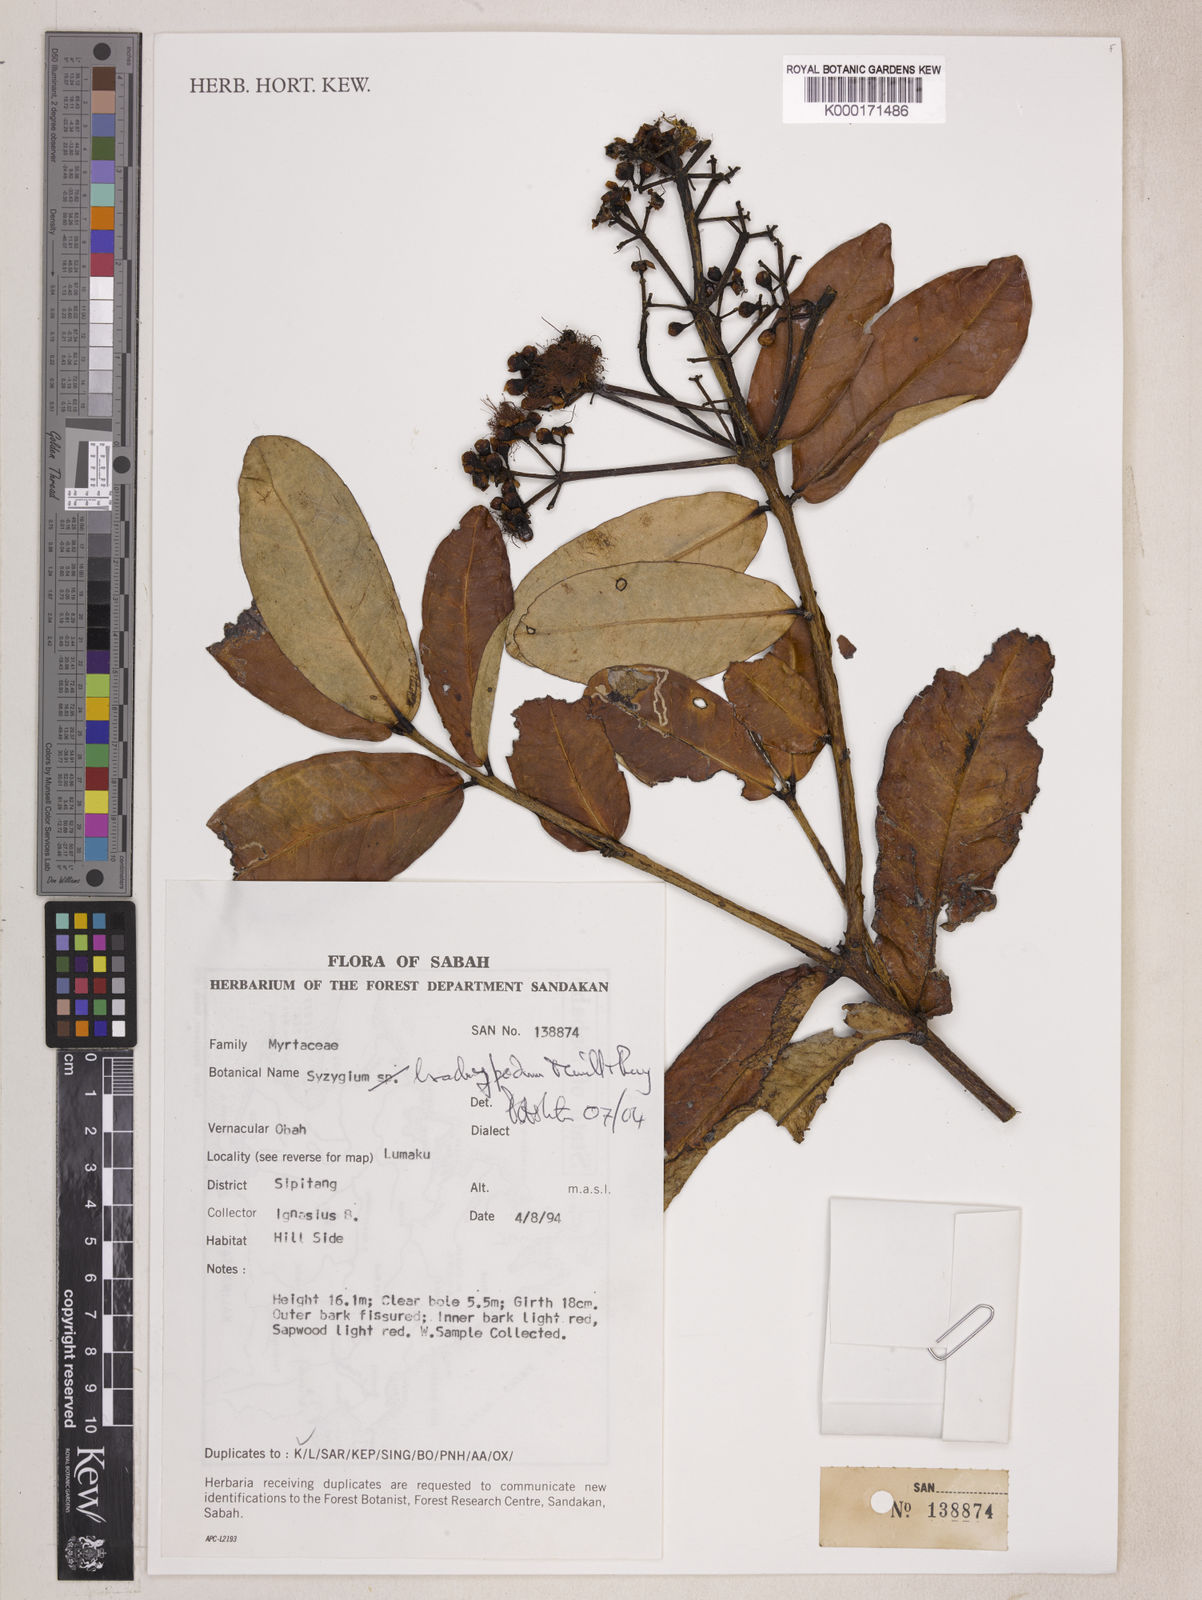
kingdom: Plantae
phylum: Tracheophyta
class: Magnoliopsida
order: Myrtales
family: Myrtaceae
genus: Syzygium
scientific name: Syzygium brachypodum
